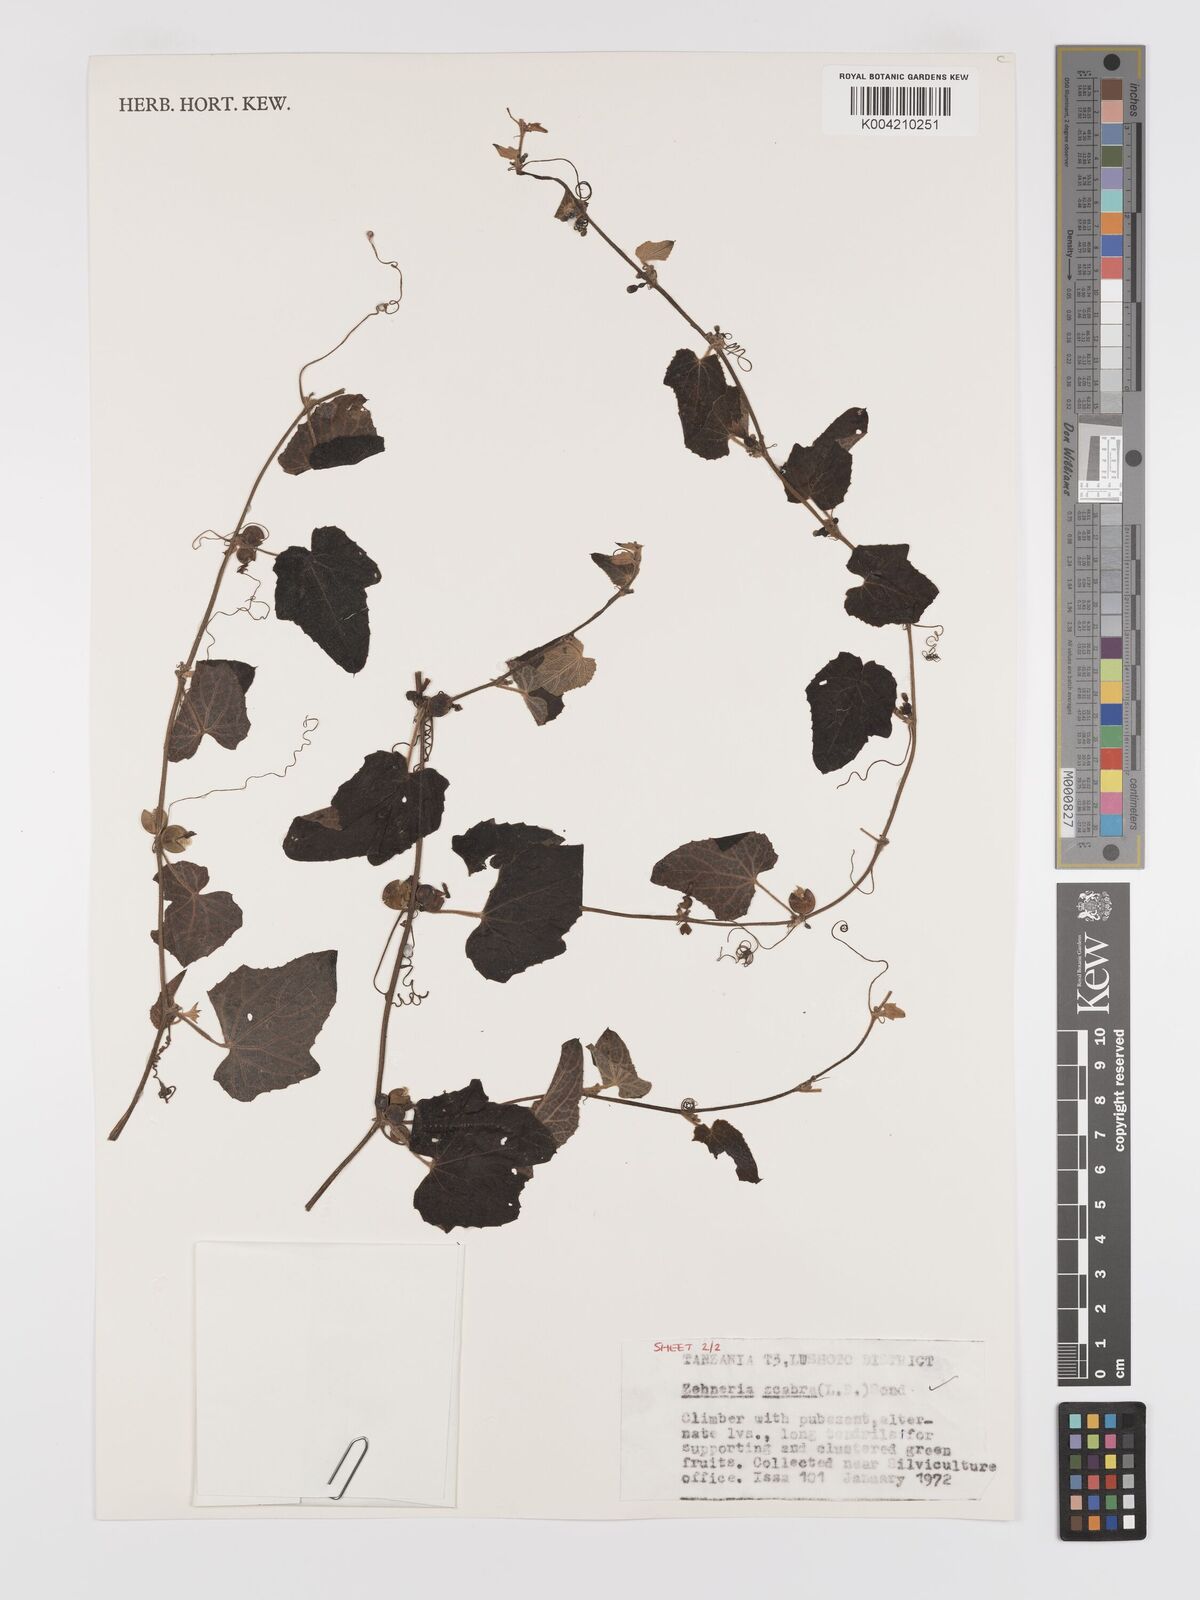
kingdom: Plantae
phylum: Tracheophyta
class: Magnoliopsida
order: Cucurbitales
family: Cucurbitaceae
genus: Zehneria
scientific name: Zehneria scabra
